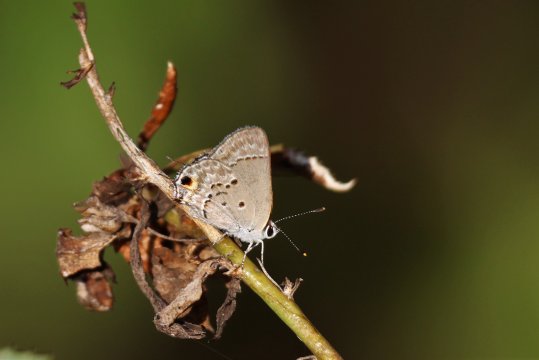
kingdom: Animalia
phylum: Arthropoda
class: Insecta
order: Lepidoptera
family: Lycaenidae
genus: Callicista
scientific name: Callicista columella
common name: Mallow Scrub-Hairstreak
